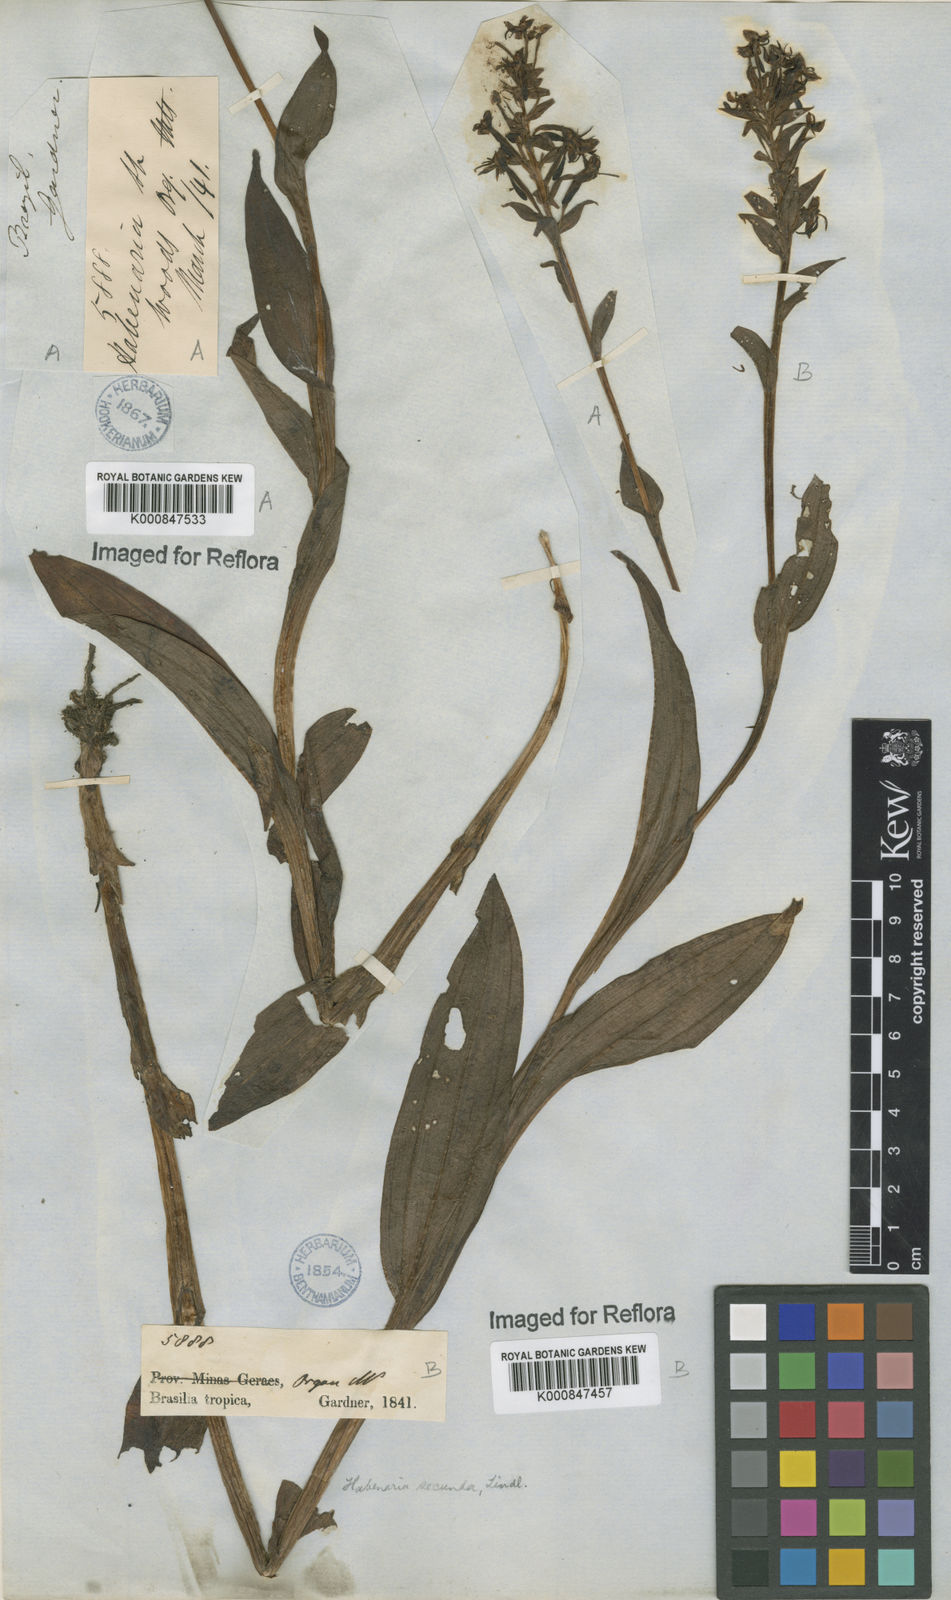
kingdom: Plantae
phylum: Tracheophyta
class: Liliopsida
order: Asparagales
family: Orchidaceae
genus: Habenaria
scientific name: Habenaria secunda
